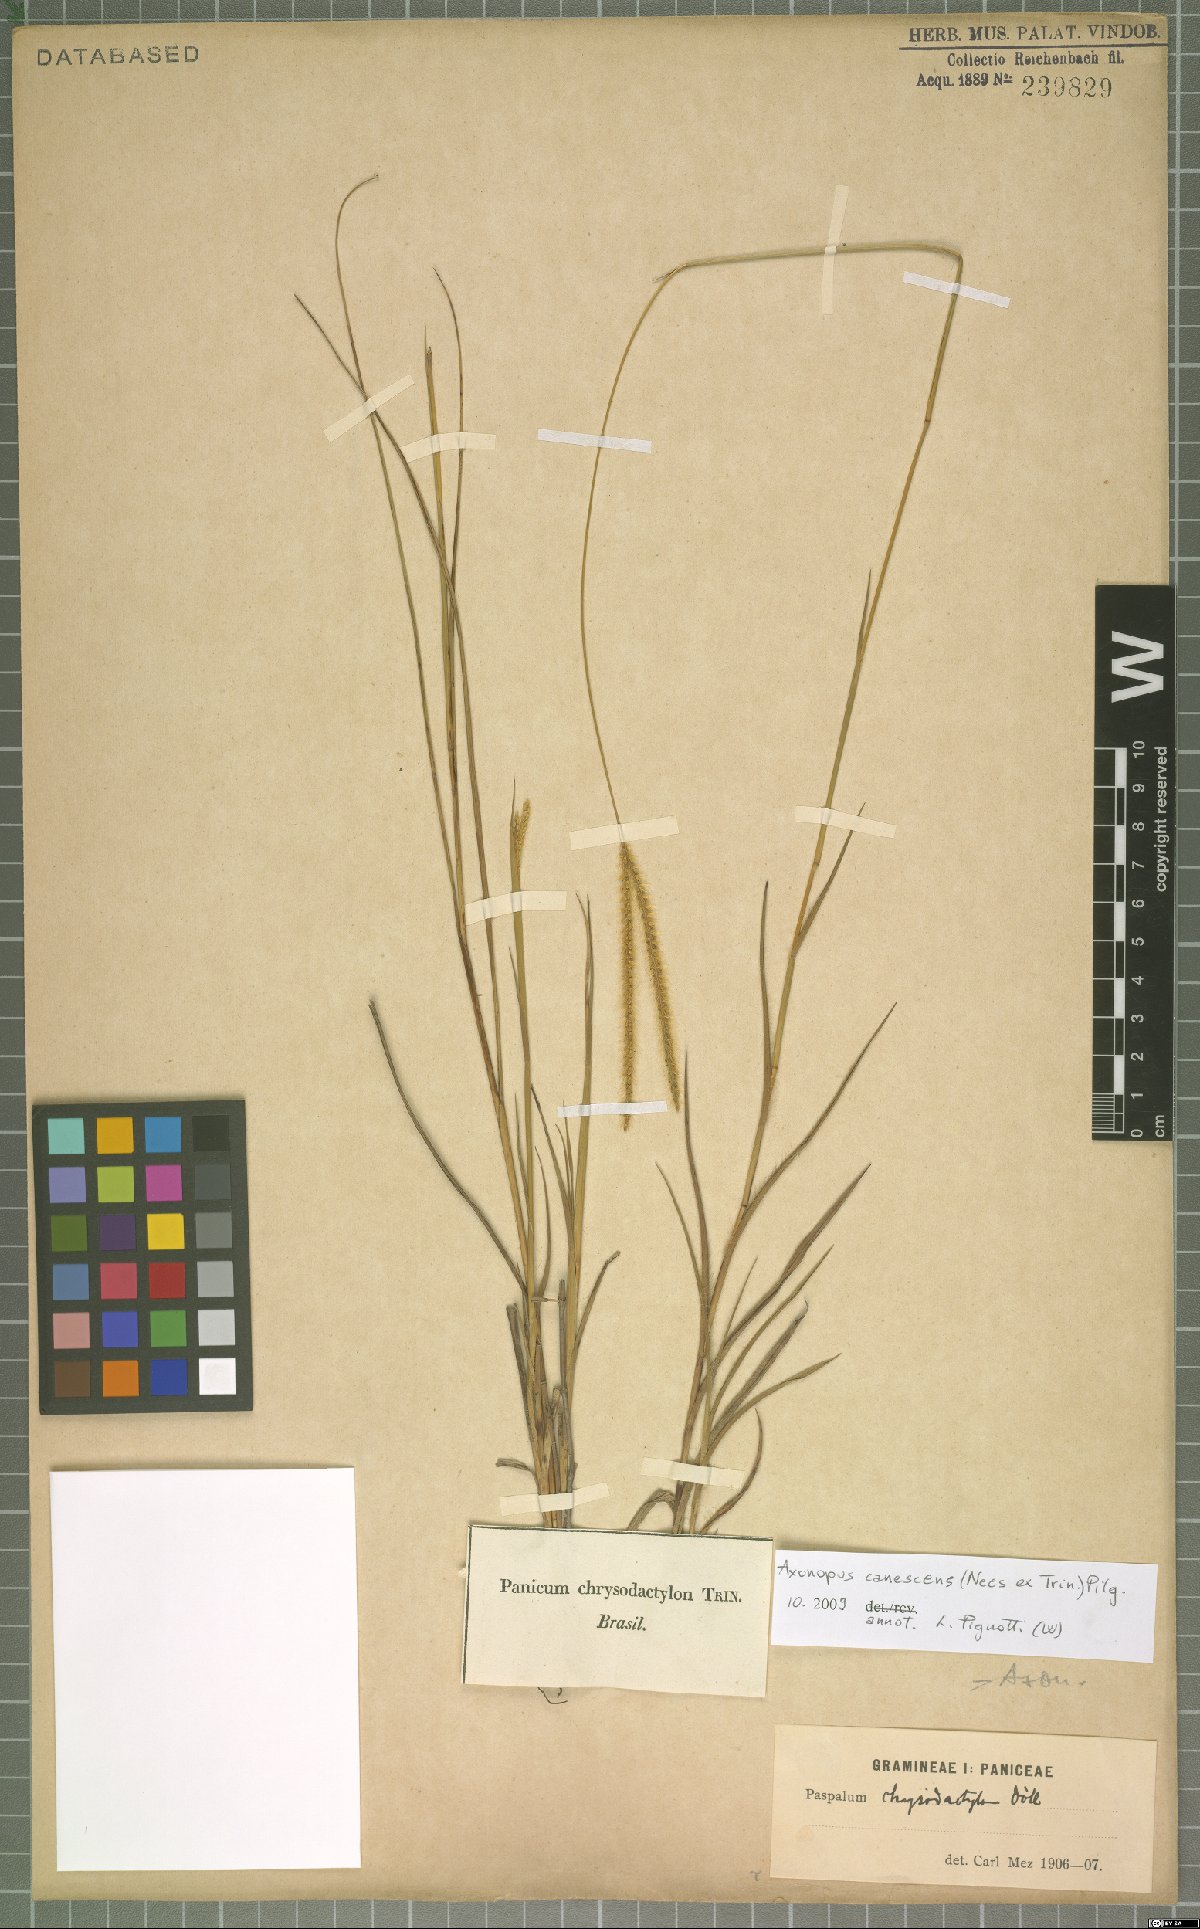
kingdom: Plantae
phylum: Tracheophyta
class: Liliopsida
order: Poales
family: Poaceae
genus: Axonopus
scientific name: Axonopus aureus
